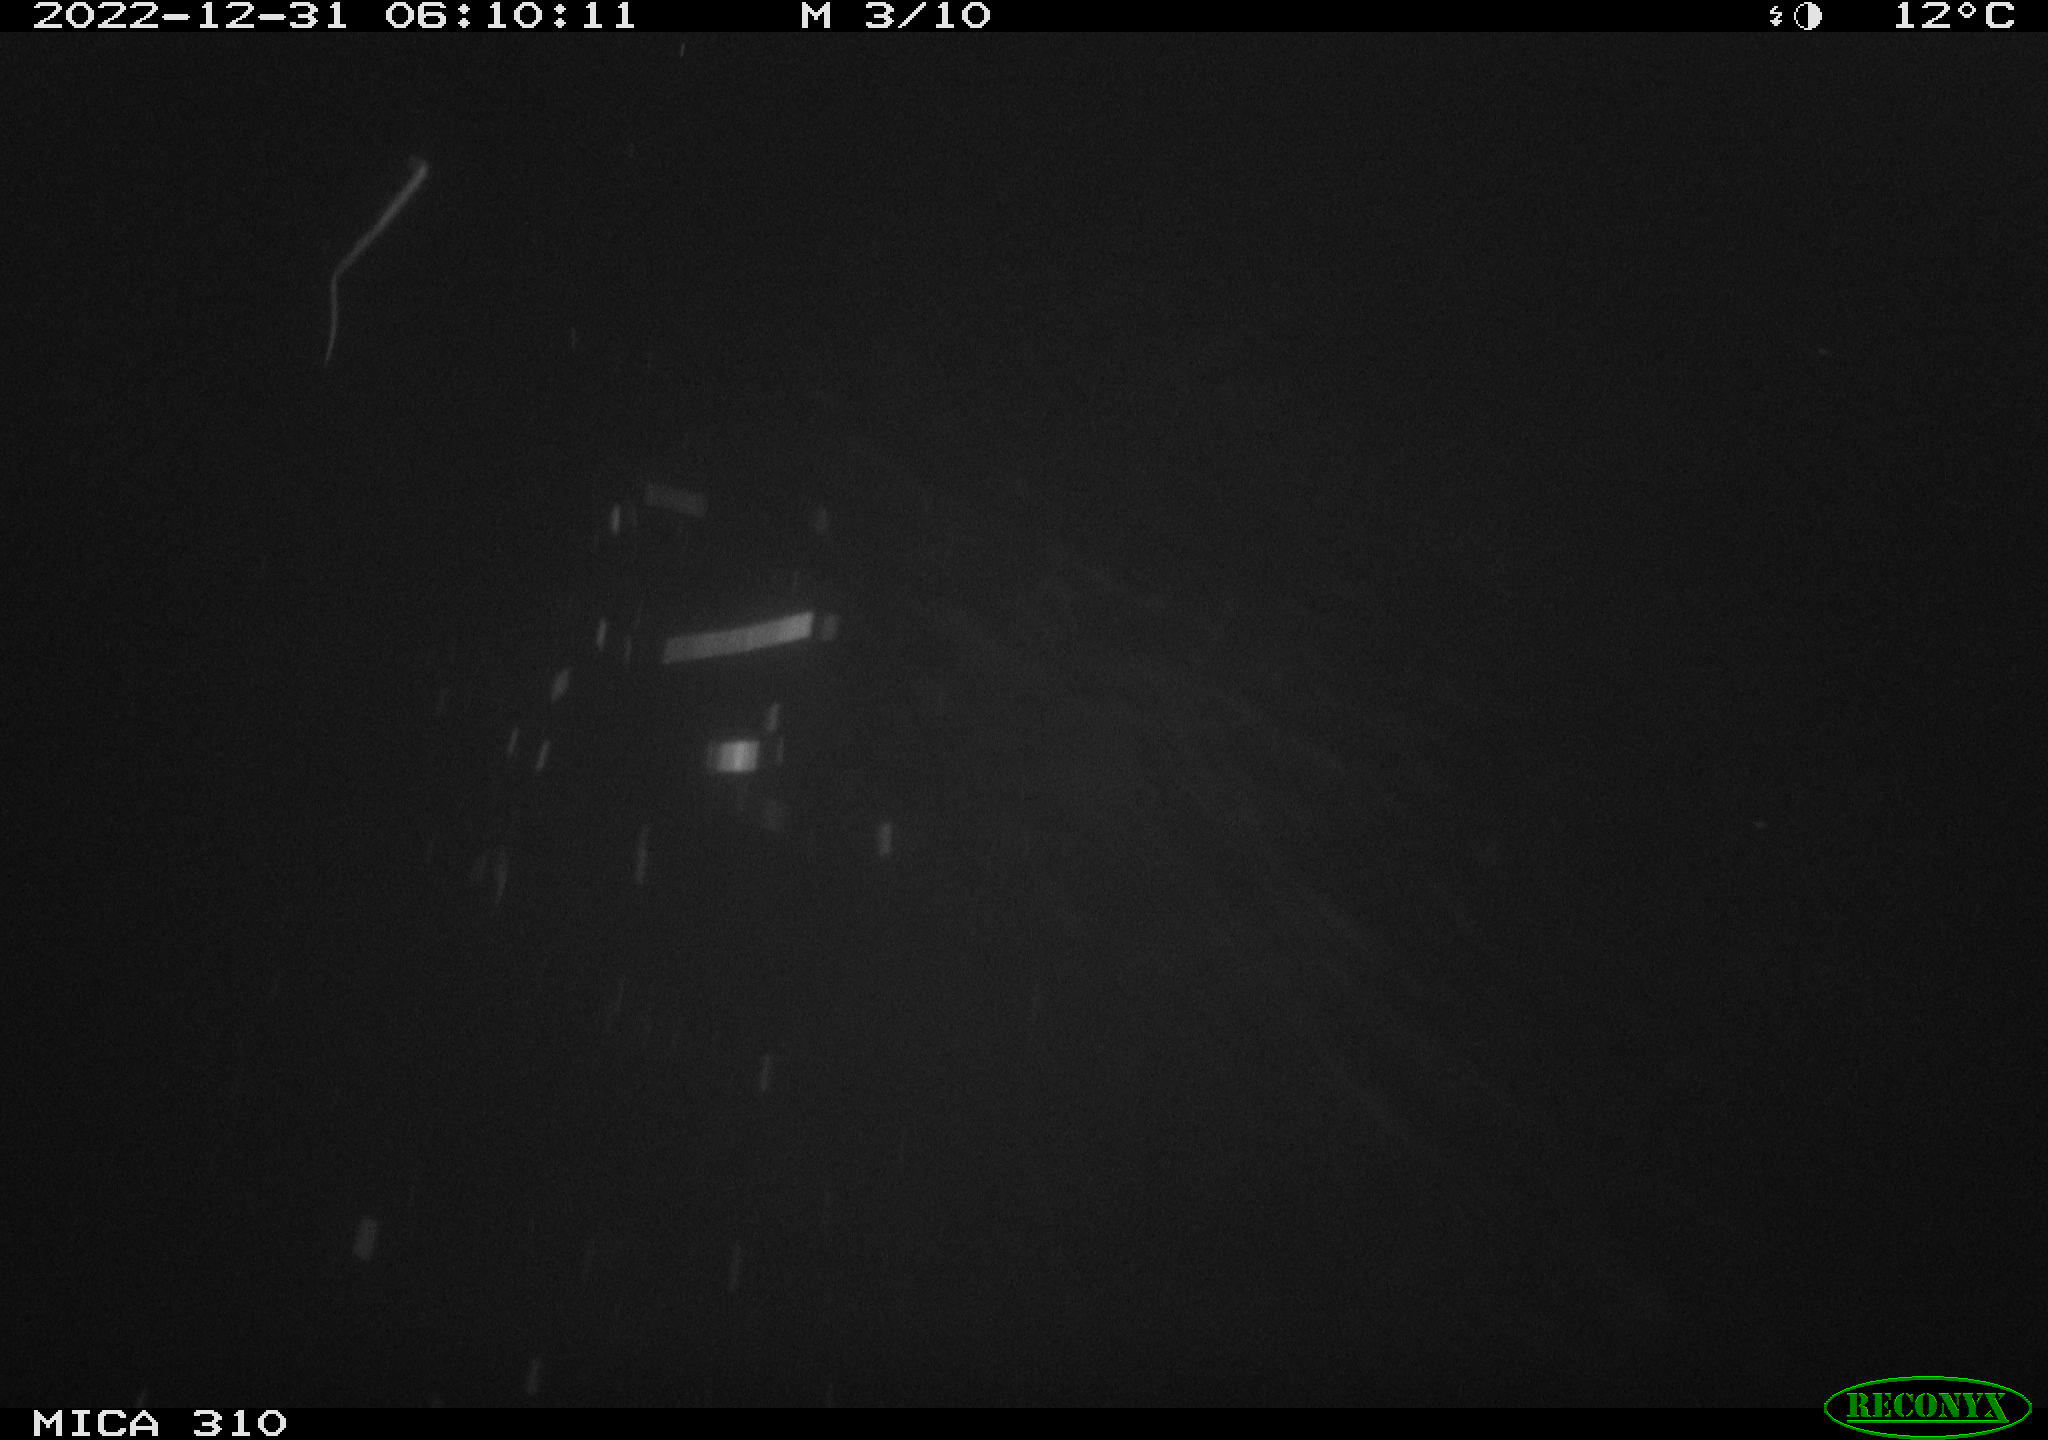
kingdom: Animalia
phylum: Chordata
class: Mammalia
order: Rodentia
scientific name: Rodentia
